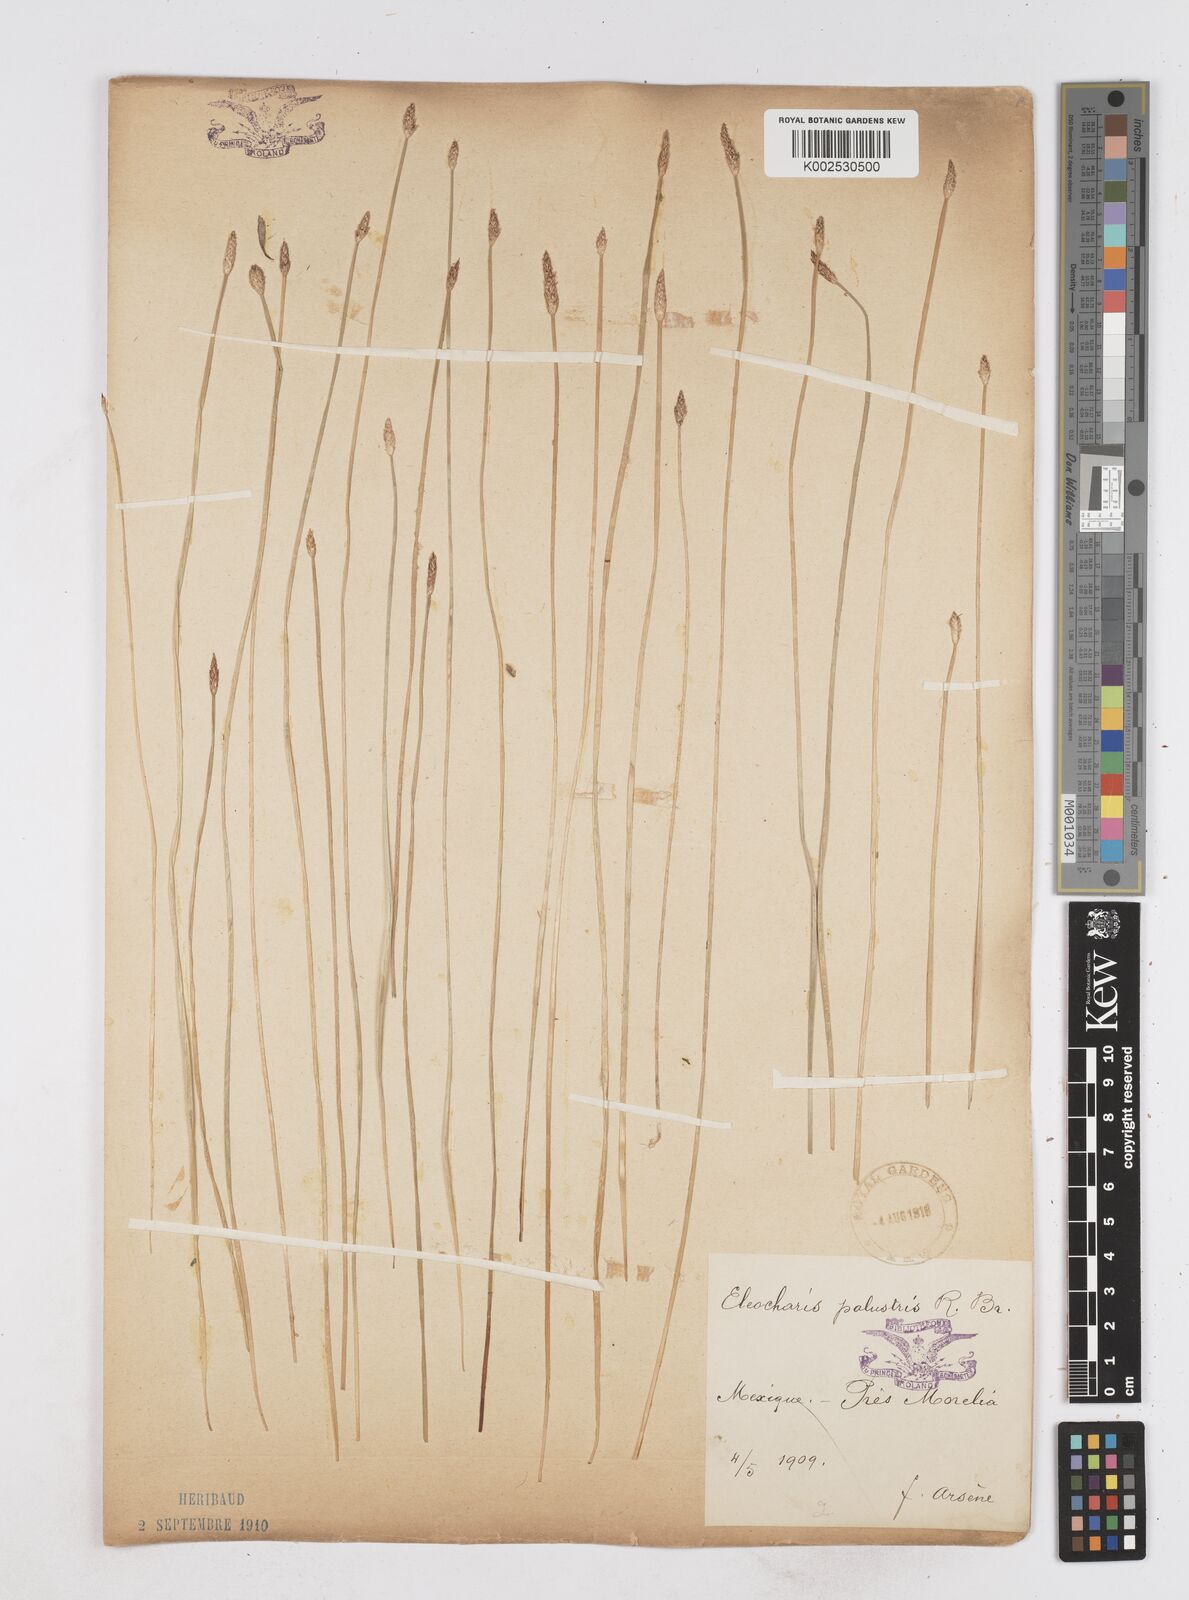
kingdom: Plantae
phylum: Tracheophyta
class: Liliopsida
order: Poales
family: Cyperaceae
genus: Eleocharis
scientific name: Eleocharis palustris
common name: Common spike-rush
